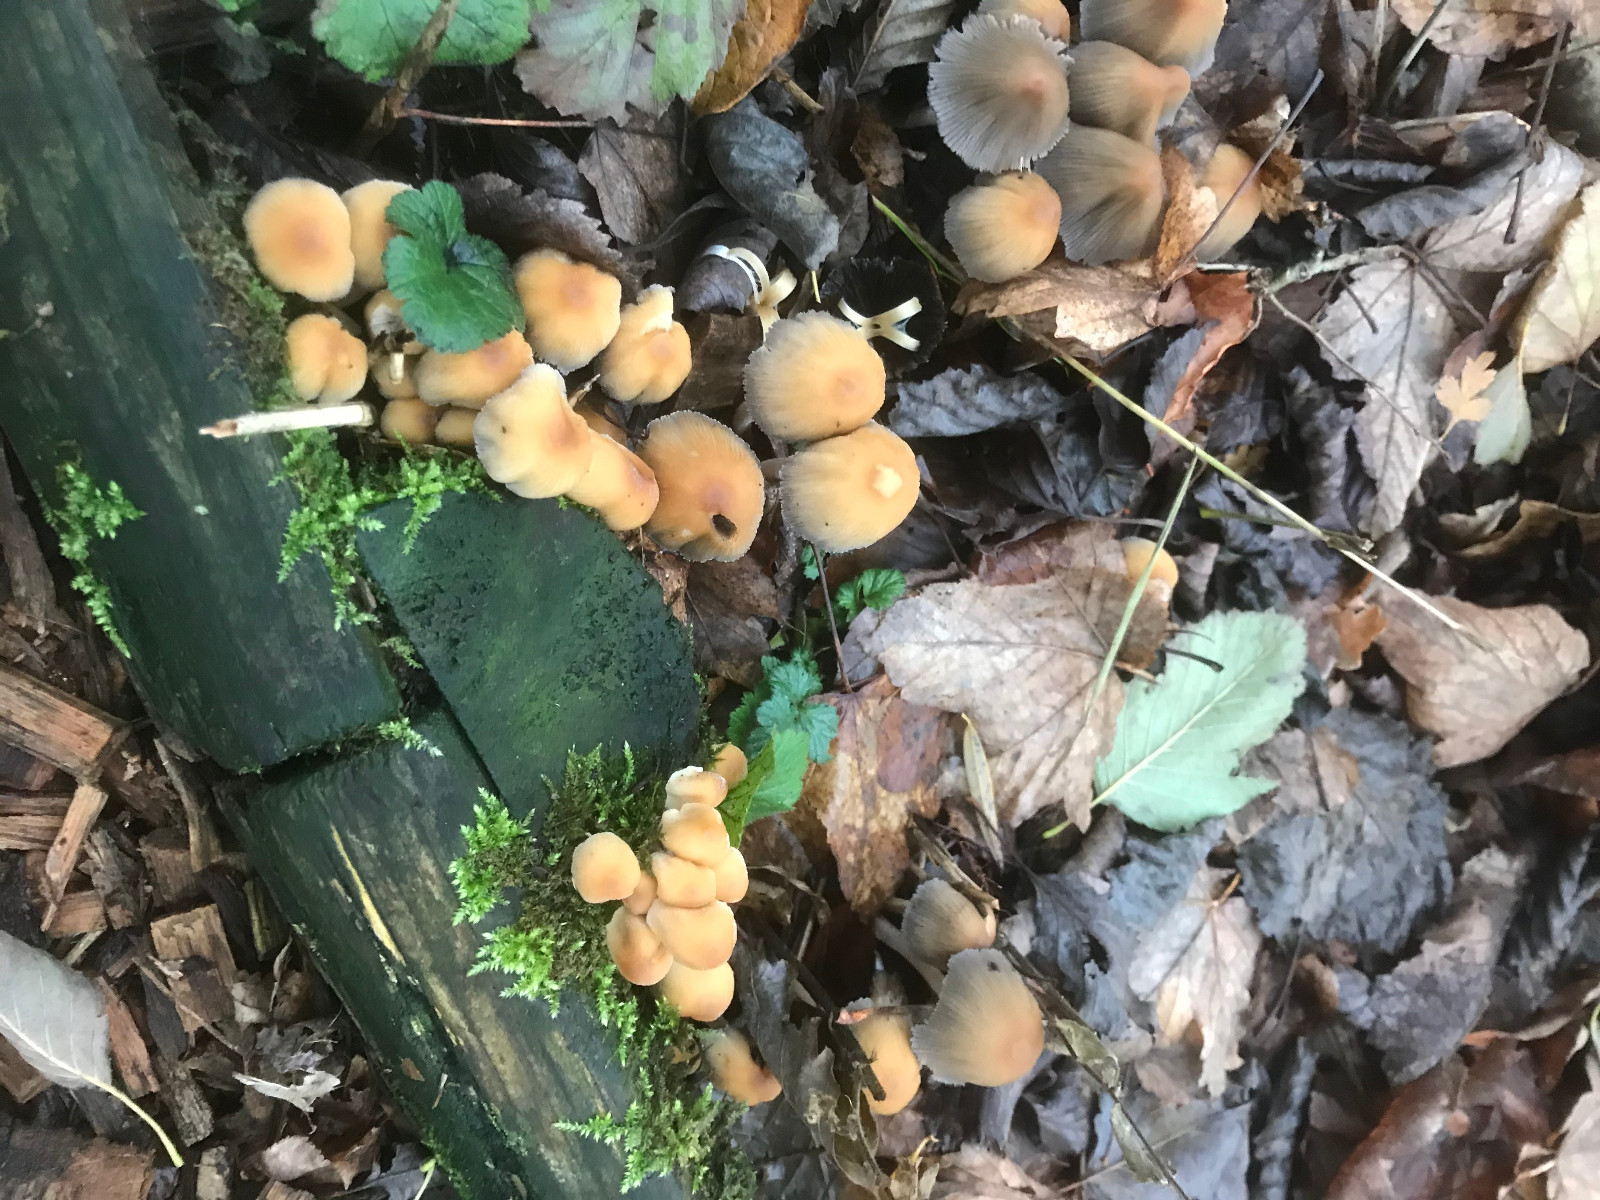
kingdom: Fungi
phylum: Basidiomycota
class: Agaricomycetes
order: Agaricales
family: Psathyrellaceae
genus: Coprinellus
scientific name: Coprinellus micaceus
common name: glimmer-blækhat
